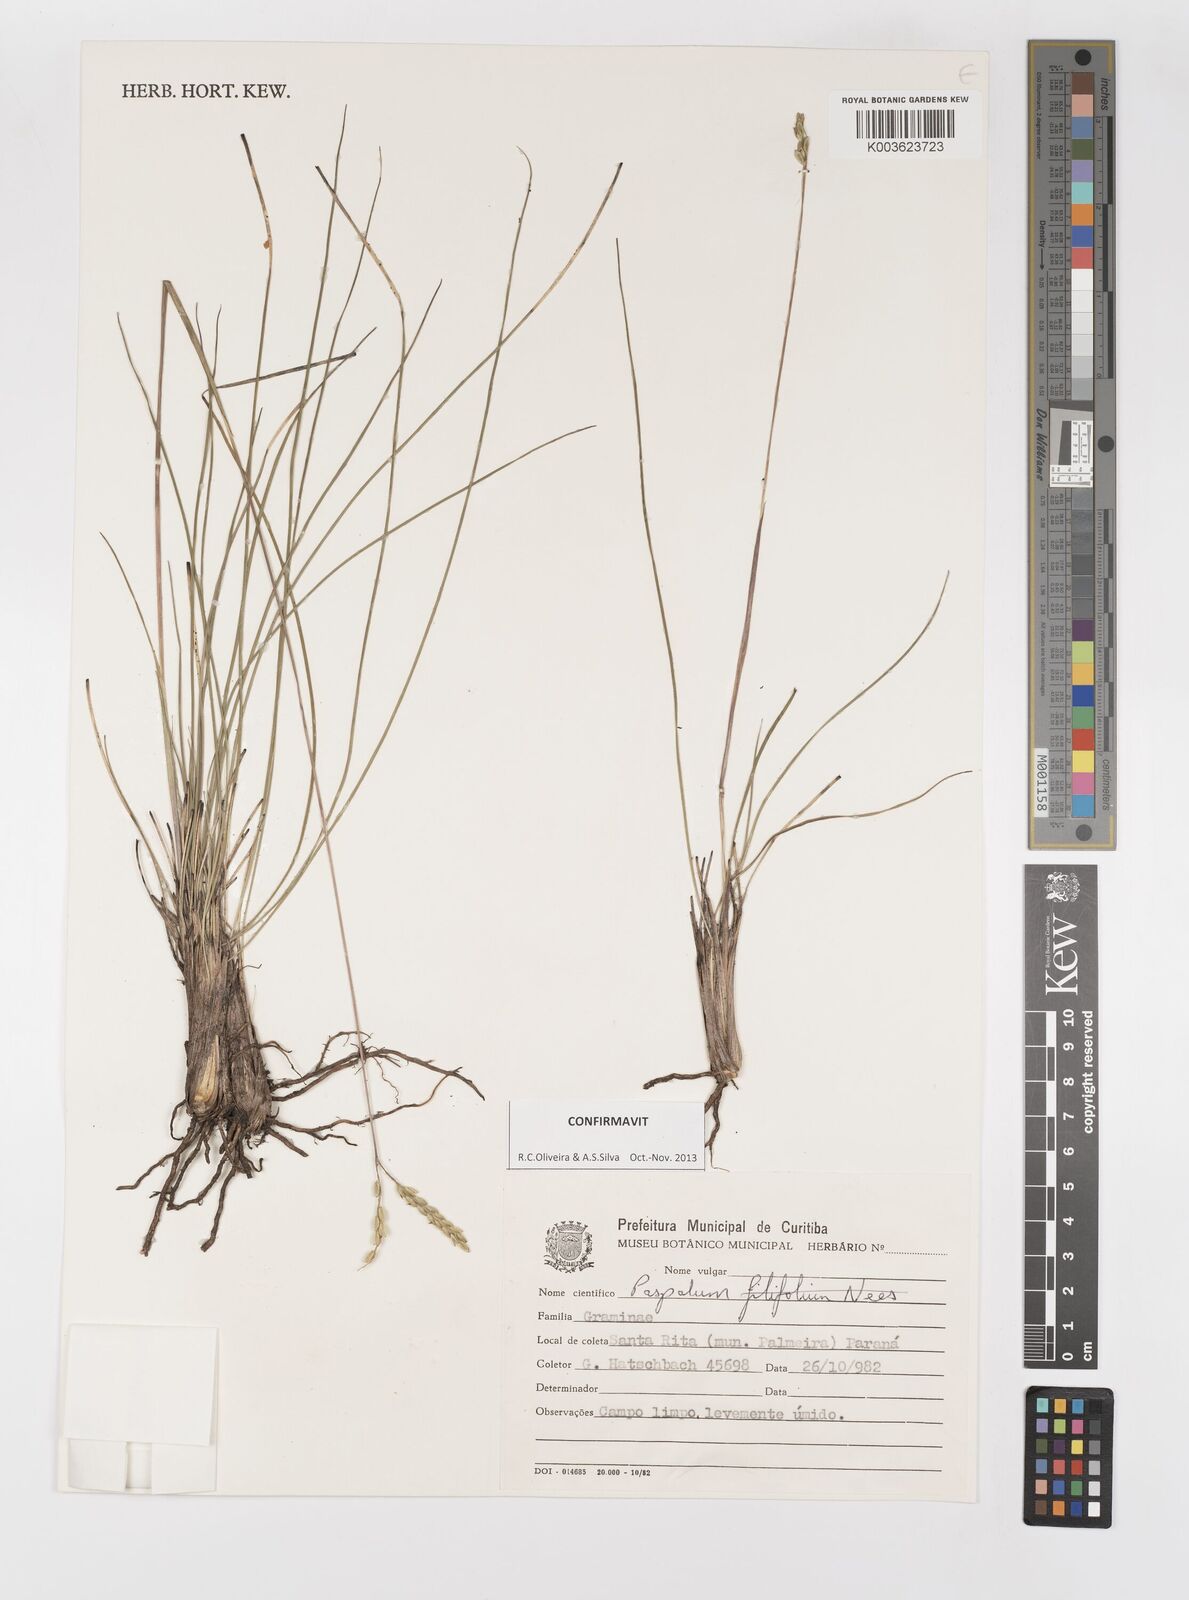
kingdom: Plantae
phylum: Tracheophyta
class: Liliopsida
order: Poales
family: Poaceae
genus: Paspalum
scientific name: Paspalum caespitosum
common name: Blue crowngrass
